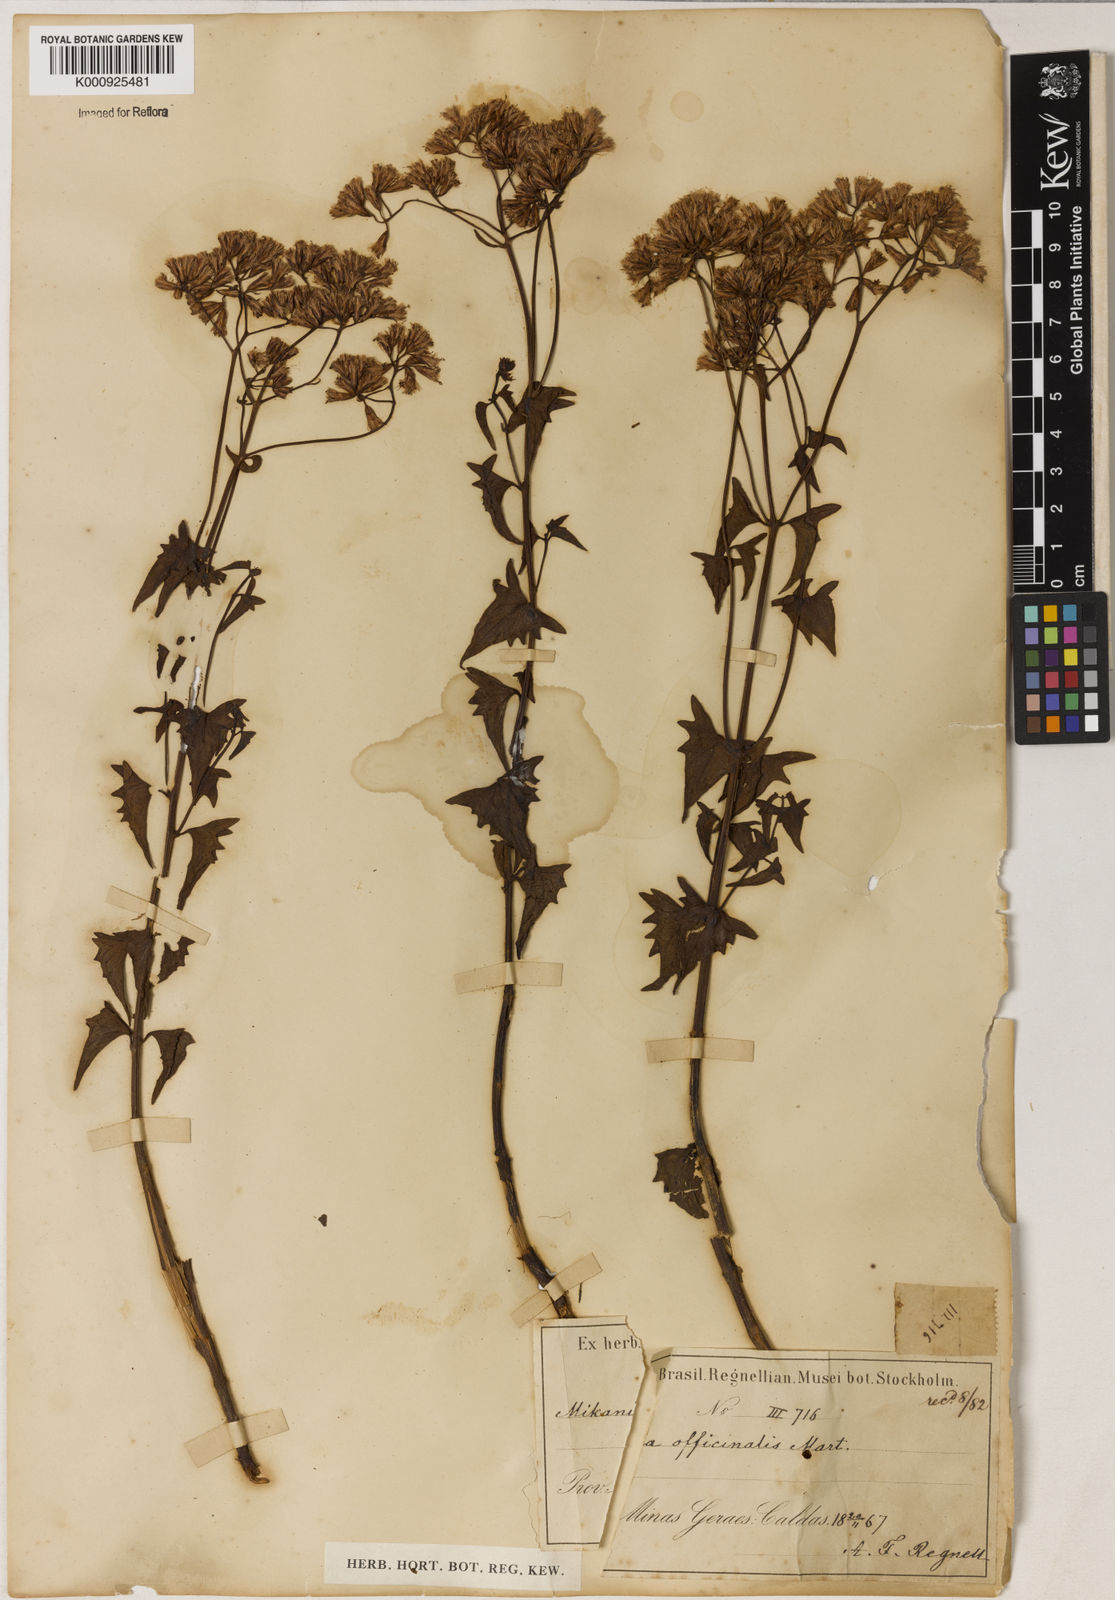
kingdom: Plantae
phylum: Tracheophyta
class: Magnoliopsida
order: Asterales
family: Asteraceae
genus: Mikania
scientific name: Mikania officinalis
